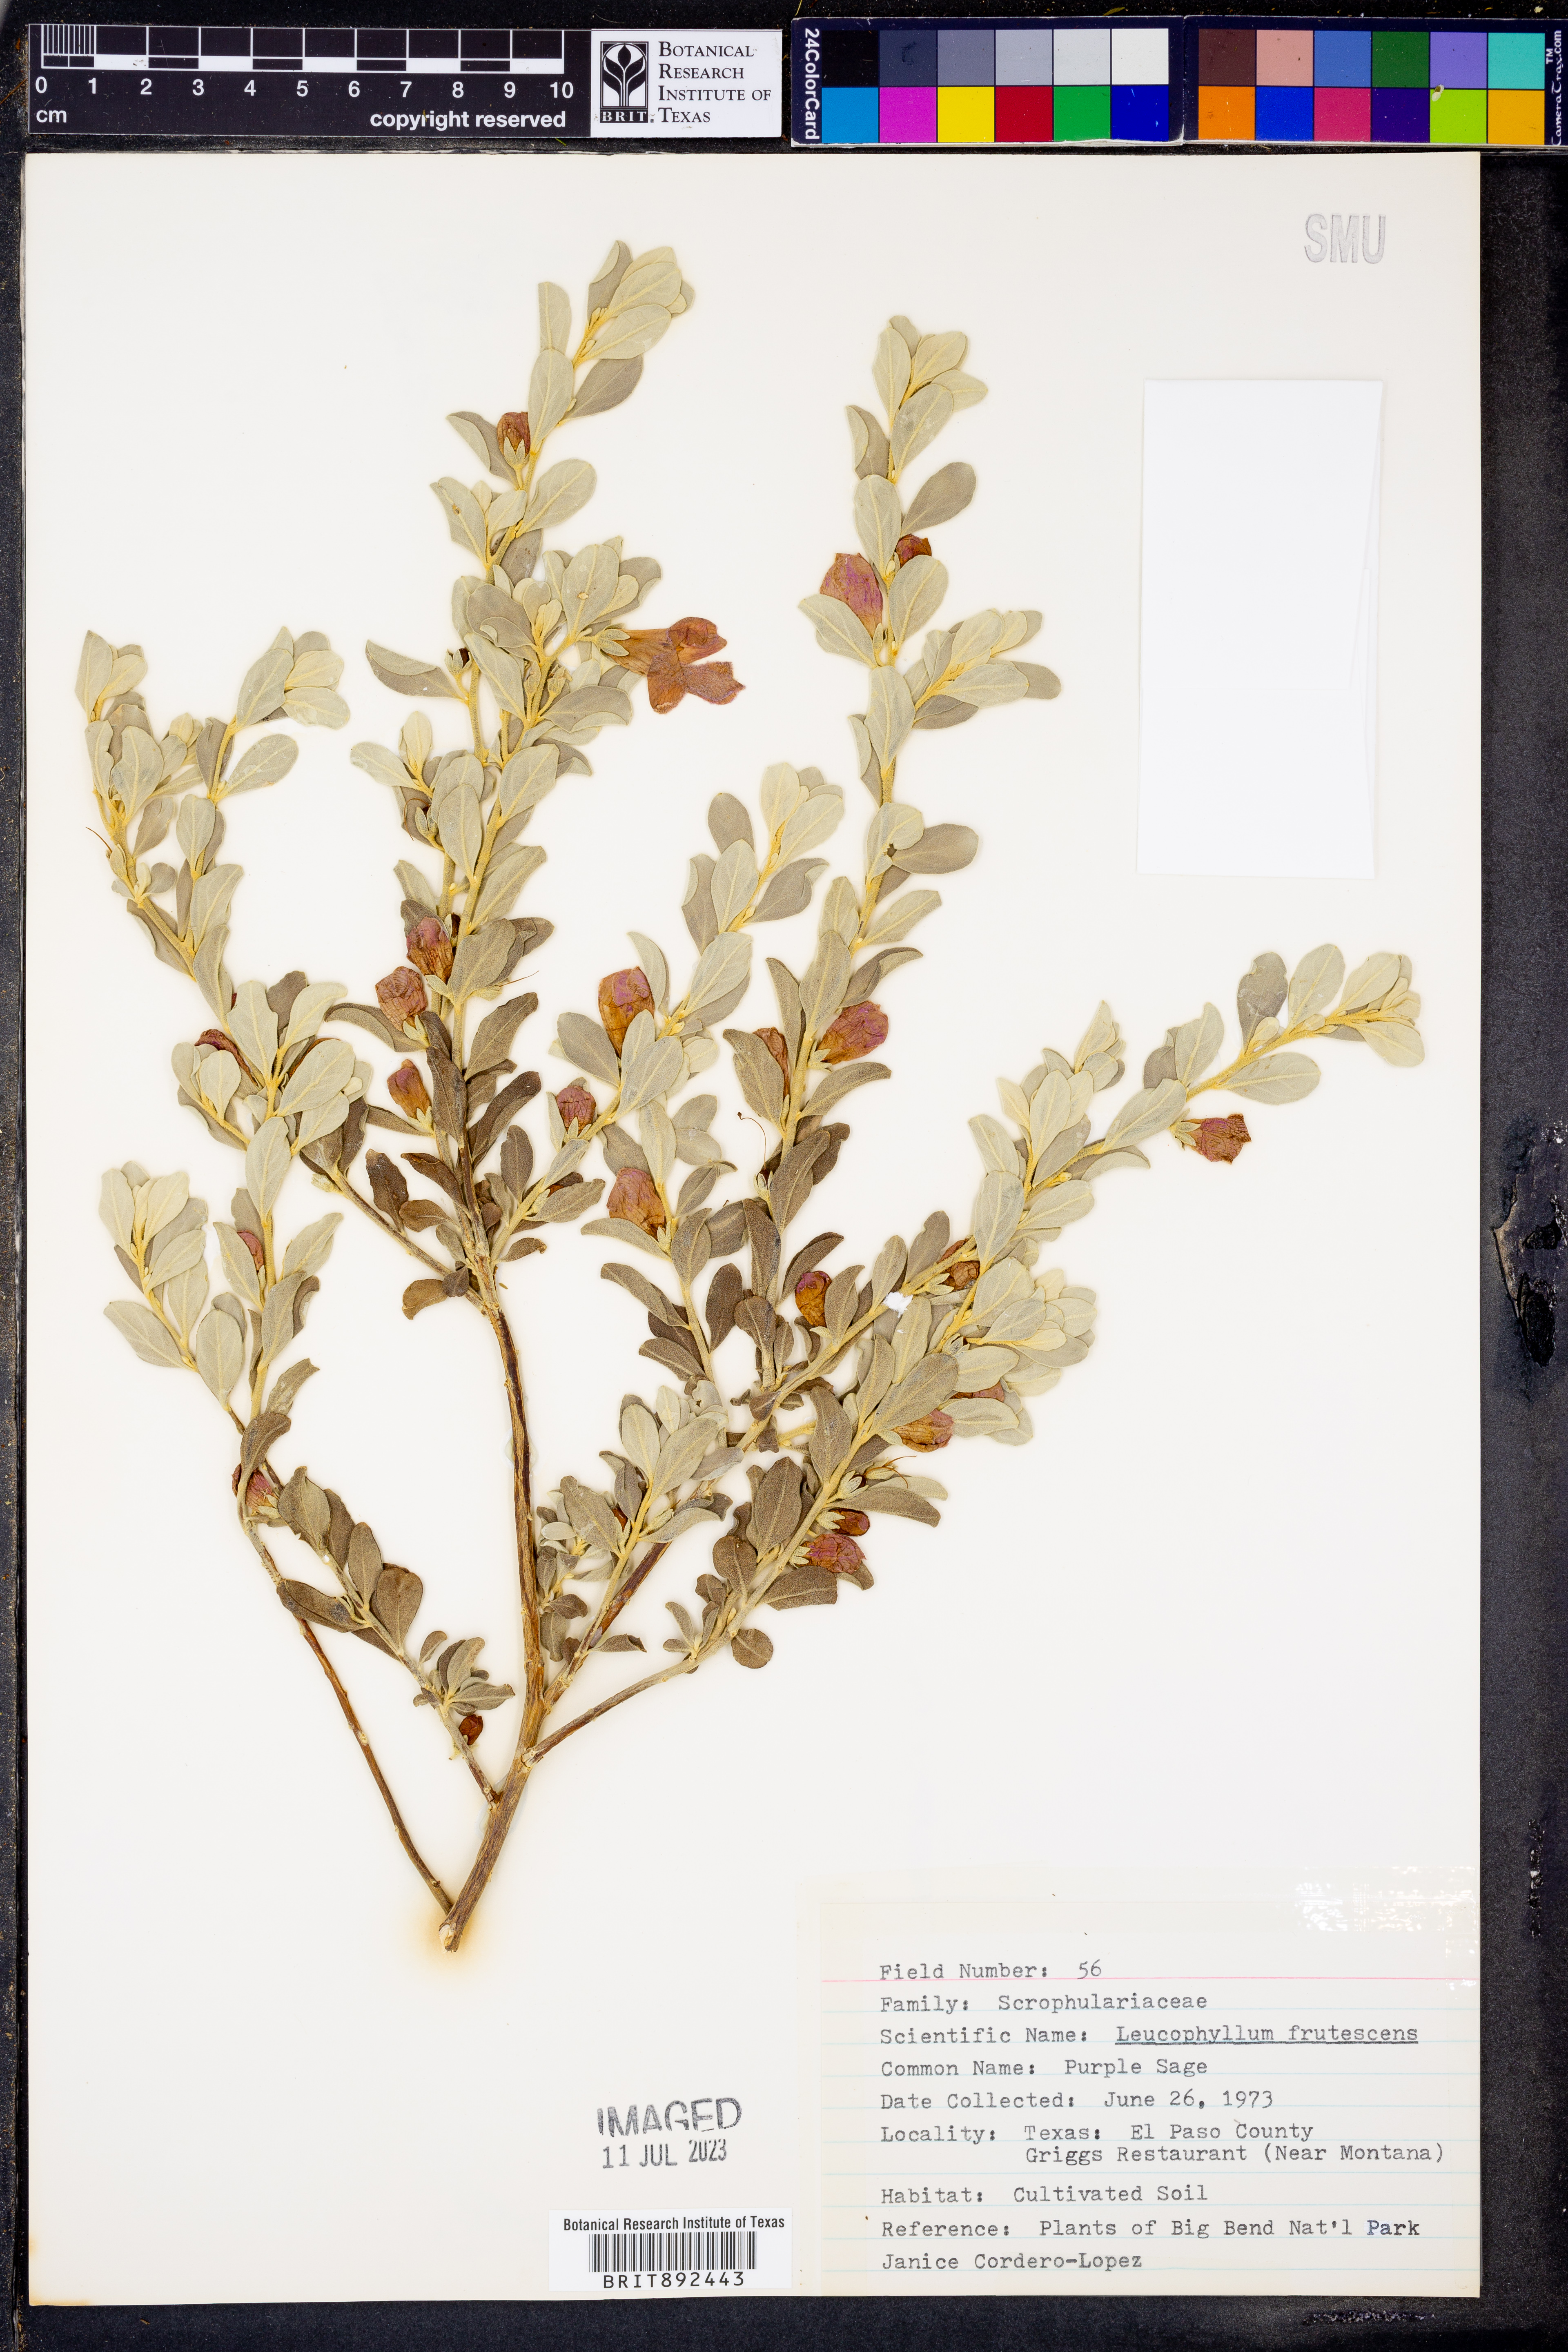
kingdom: Plantae
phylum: Tracheophyta
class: Magnoliopsida
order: Lamiales
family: Scrophulariaceae
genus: Leucophyllum
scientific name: Leucophyllum frutescens
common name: Texas silverleaf
